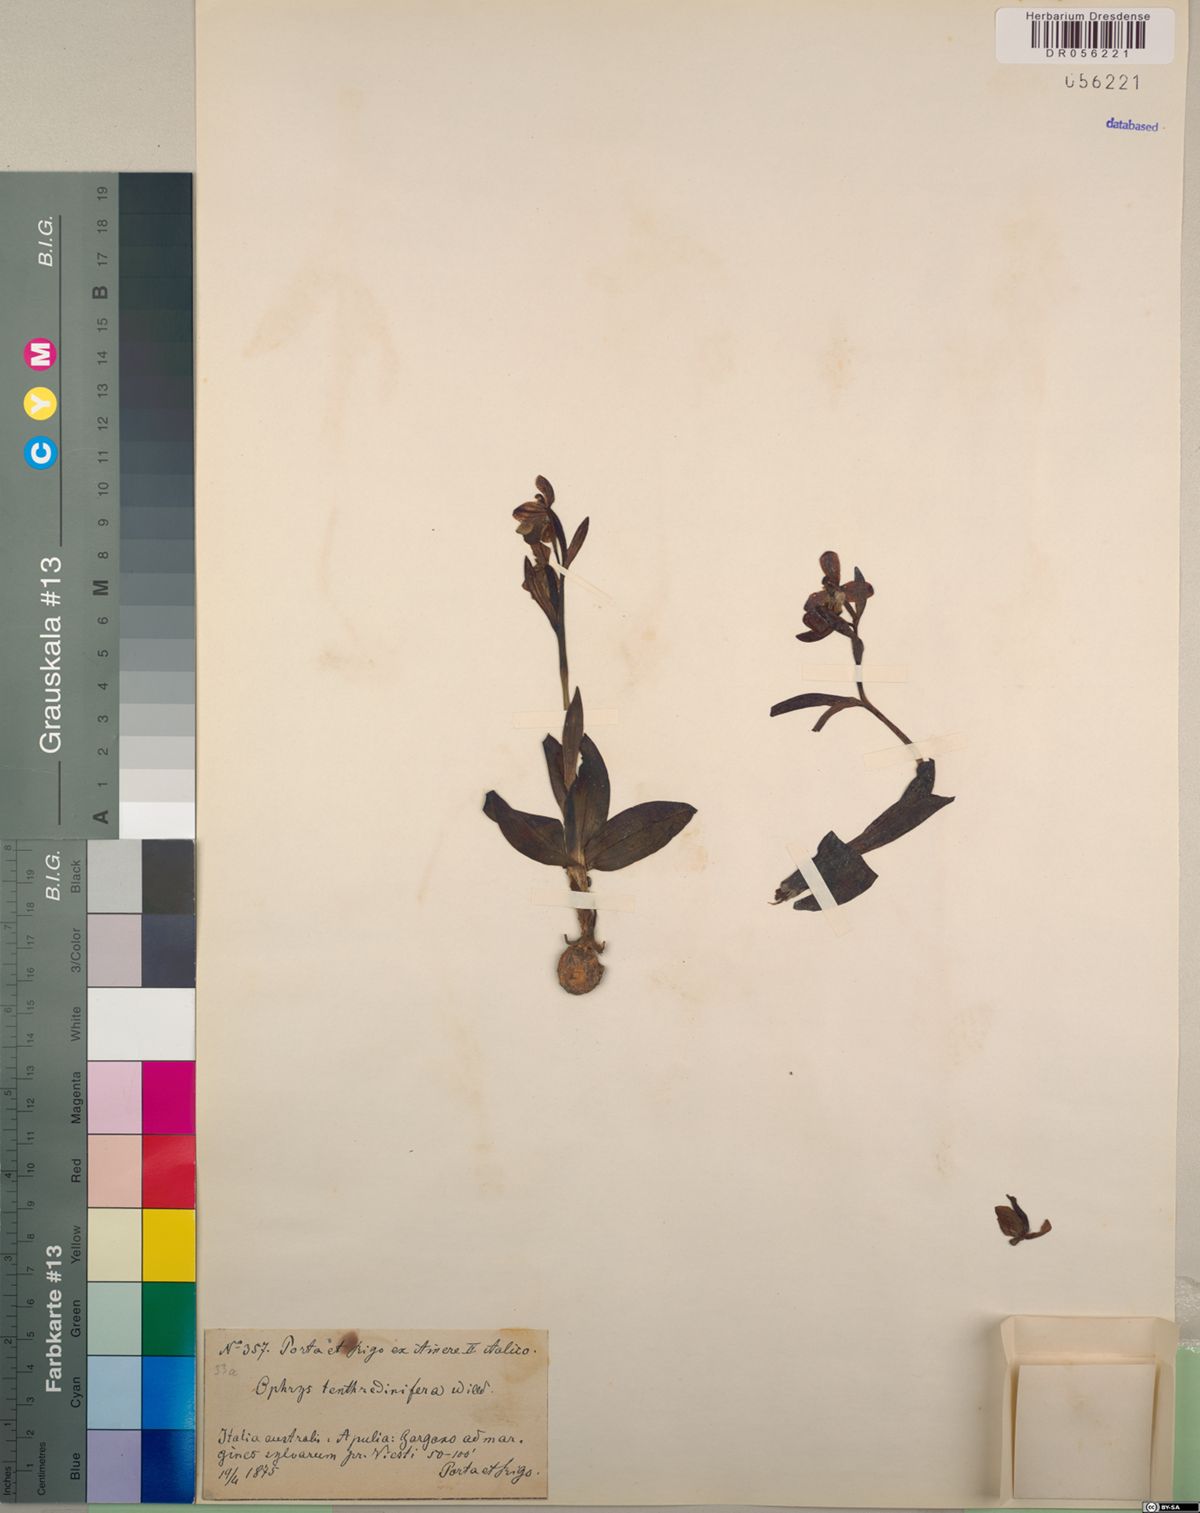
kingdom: Plantae
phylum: Tracheophyta
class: Liliopsida
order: Asparagales
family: Orchidaceae
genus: Ophrys
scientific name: Ophrys tenthredinifera
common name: Sawfly orchid
